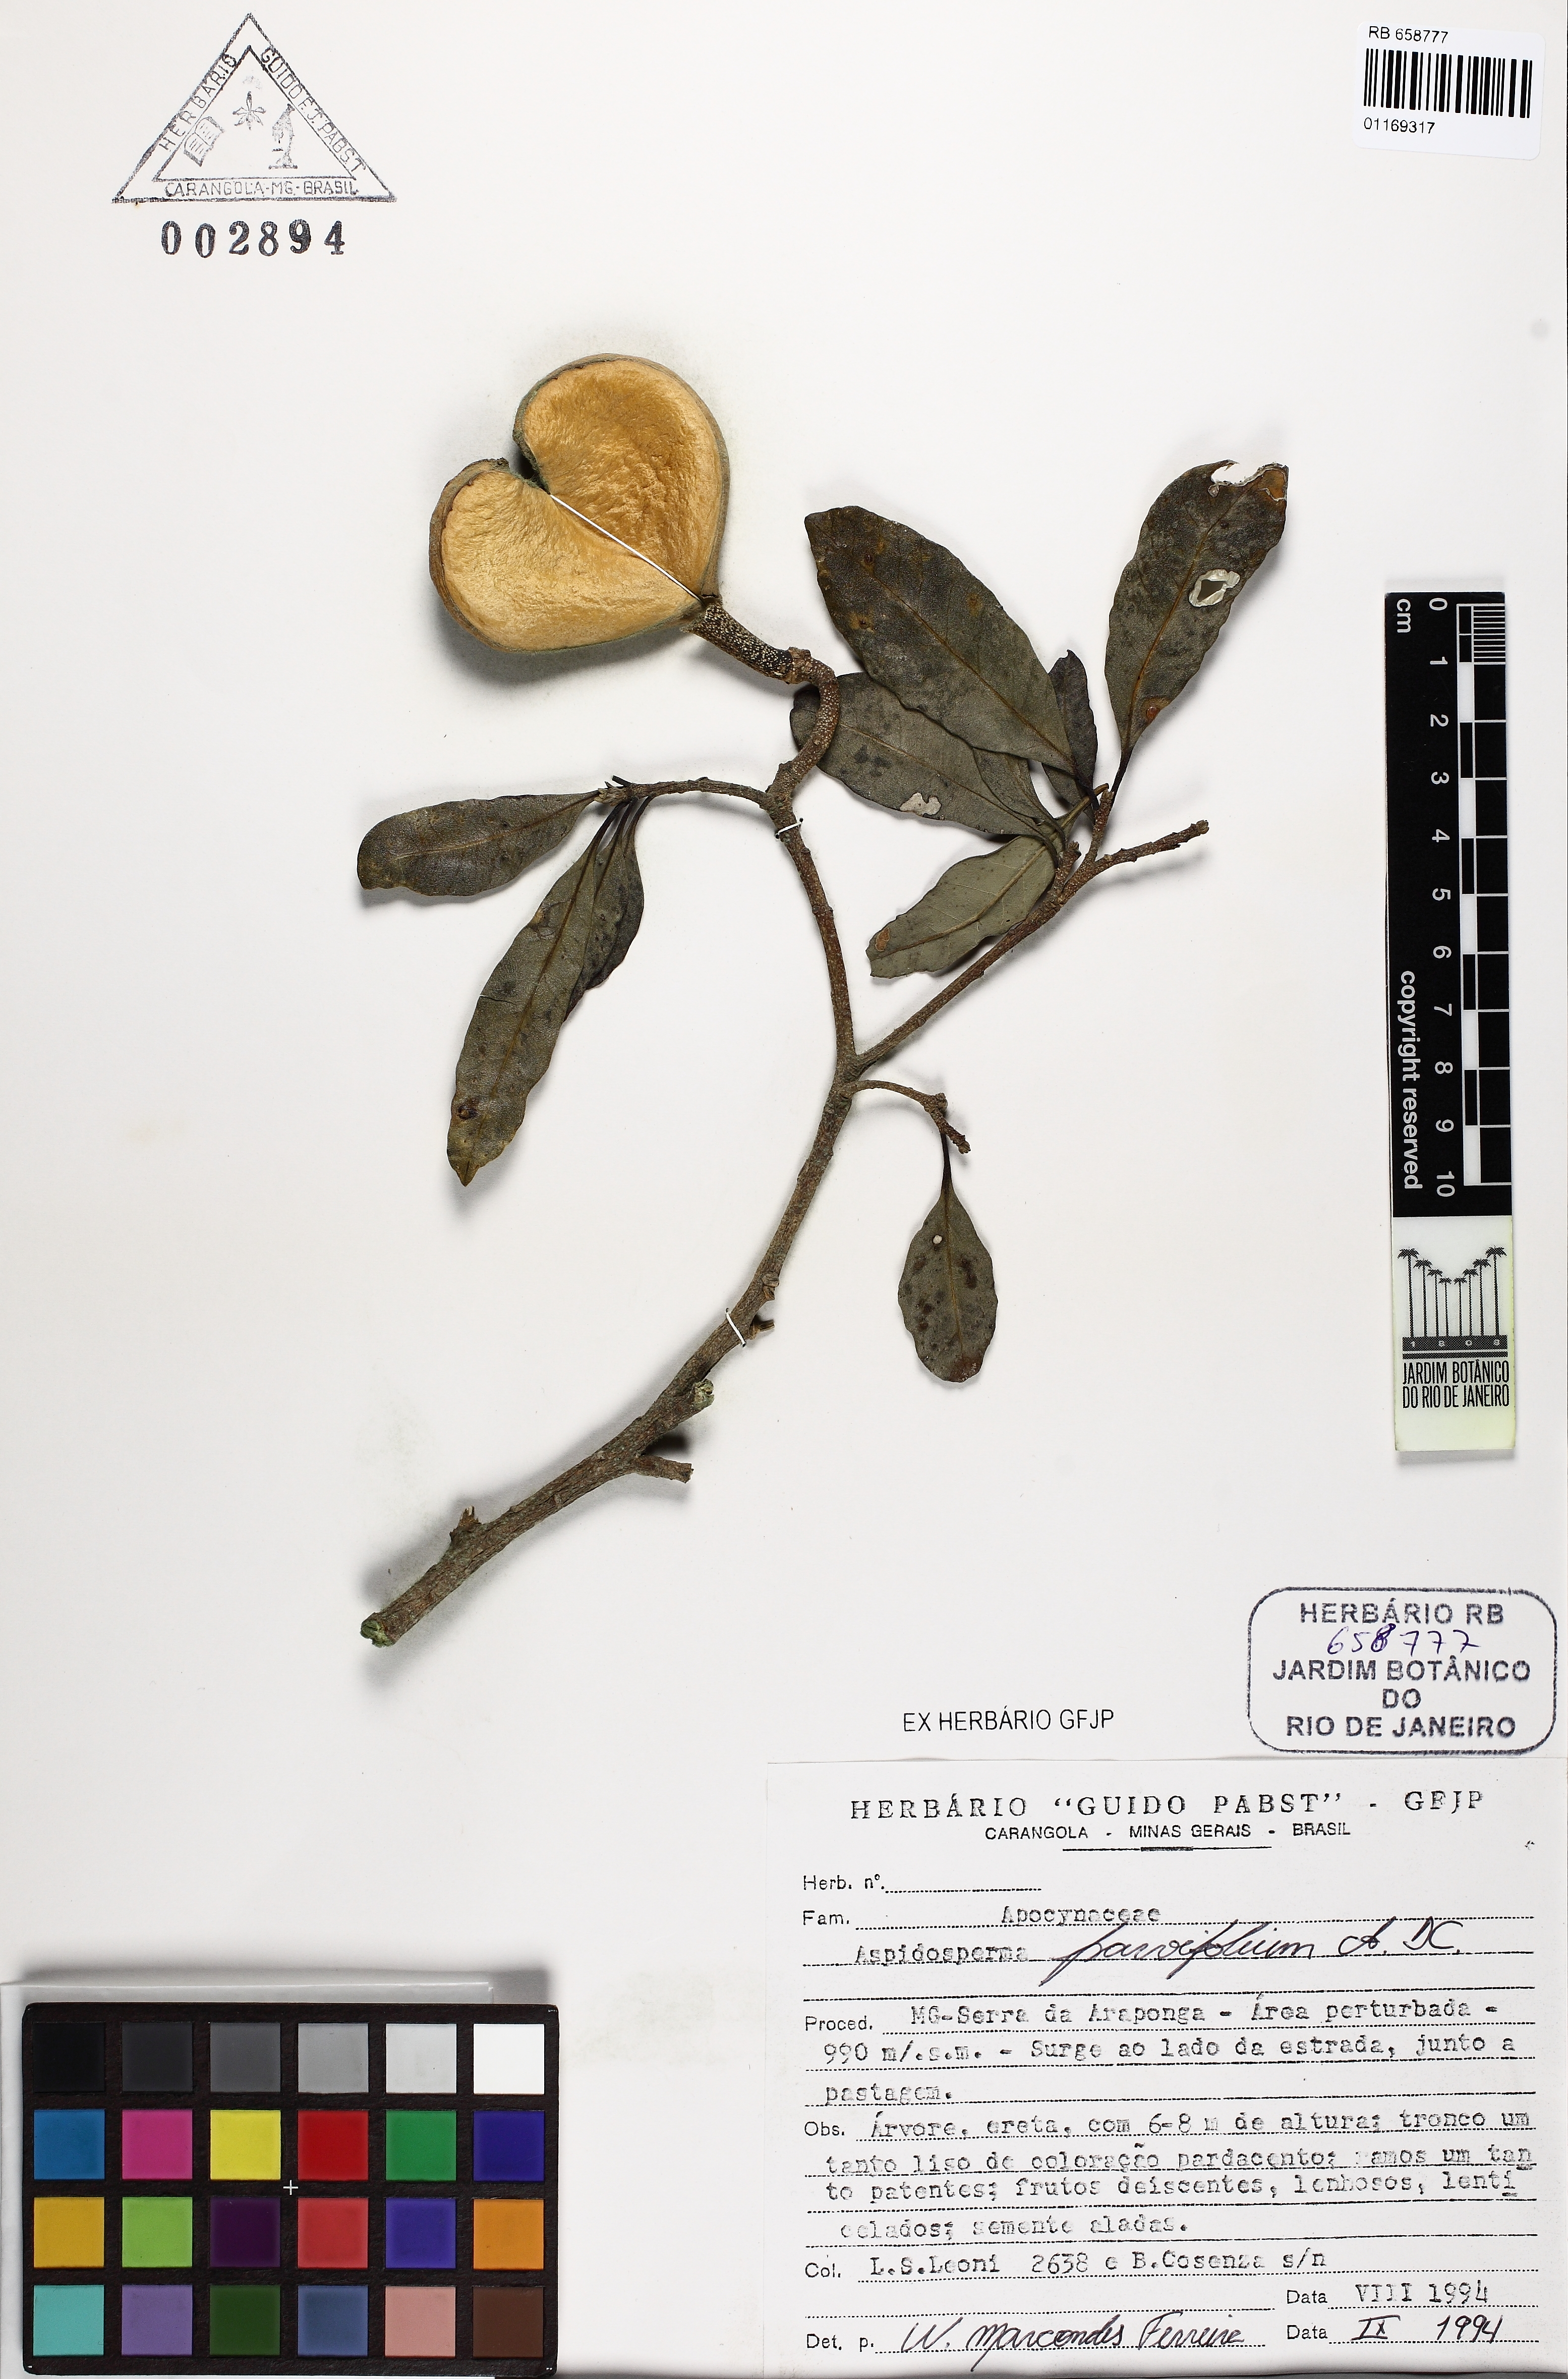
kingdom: Plantae
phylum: Tracheophyta
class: Magnoliopsida
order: Gentianales
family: Apocynaceae
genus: Aspidosperma
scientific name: Aspidosperma olivaceum
